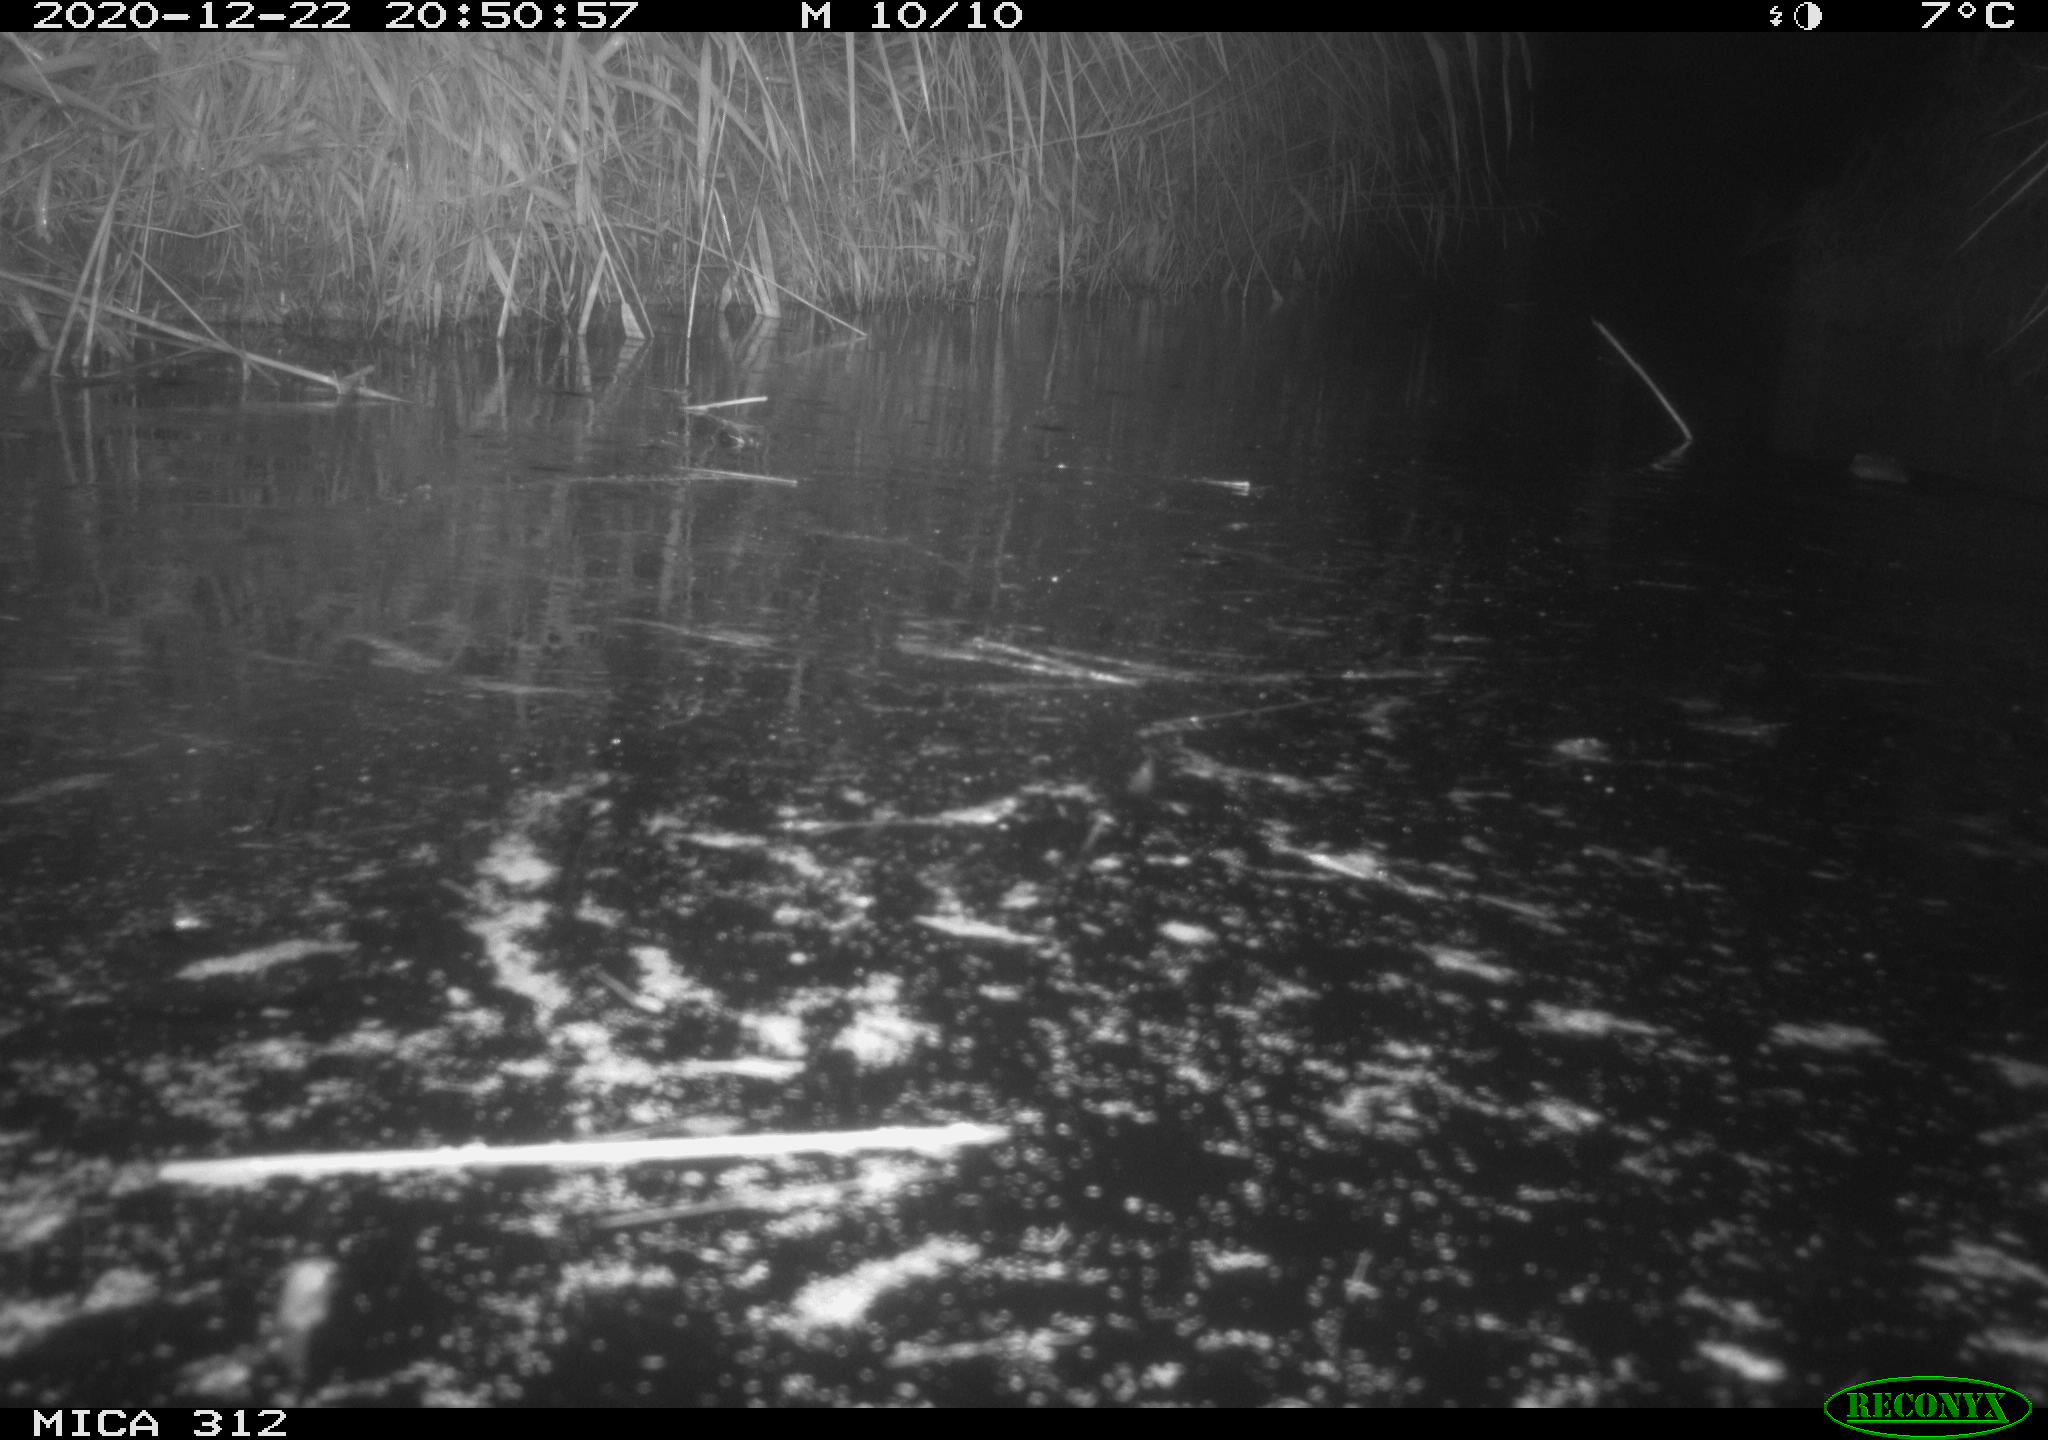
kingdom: Animalia
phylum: Chordata
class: Mammalia
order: Rodentia
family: Muridae
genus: Rattus
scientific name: Rattus norvegicus
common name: Brown rat
